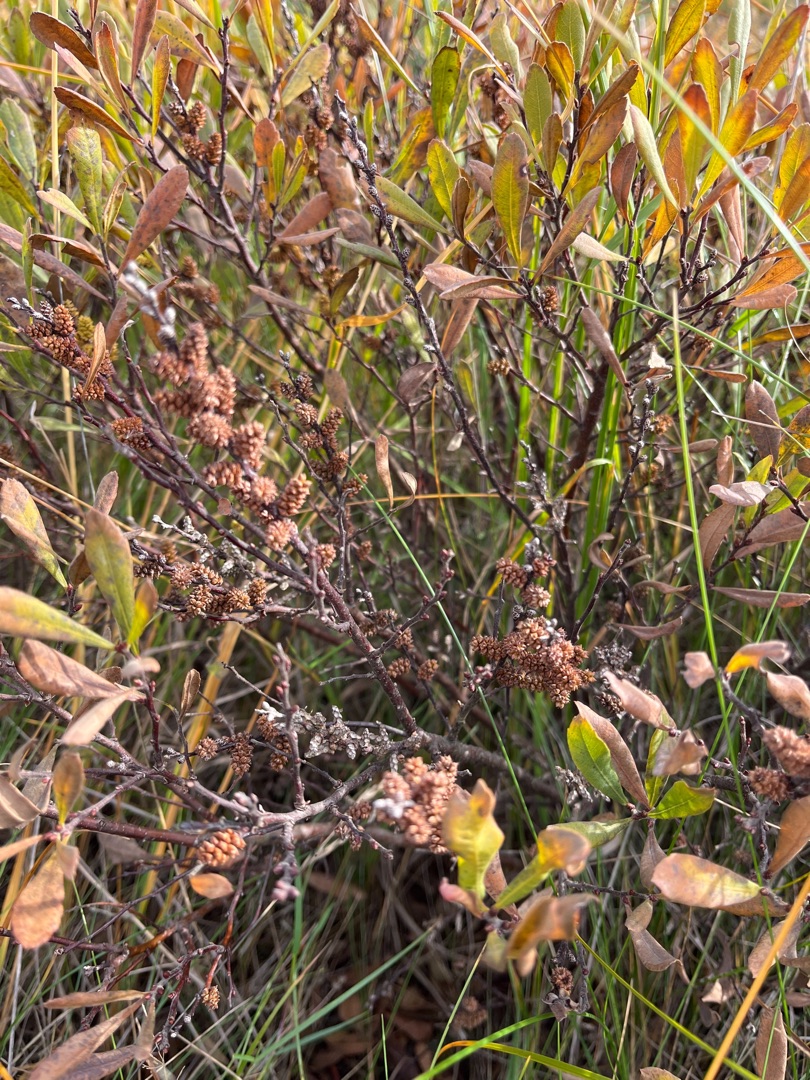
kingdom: Plantae
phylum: Tracheophyta
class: Magnoliopsida
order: Fagales
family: Myricaceae
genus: Myrica
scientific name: Myrica gale
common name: Pors
